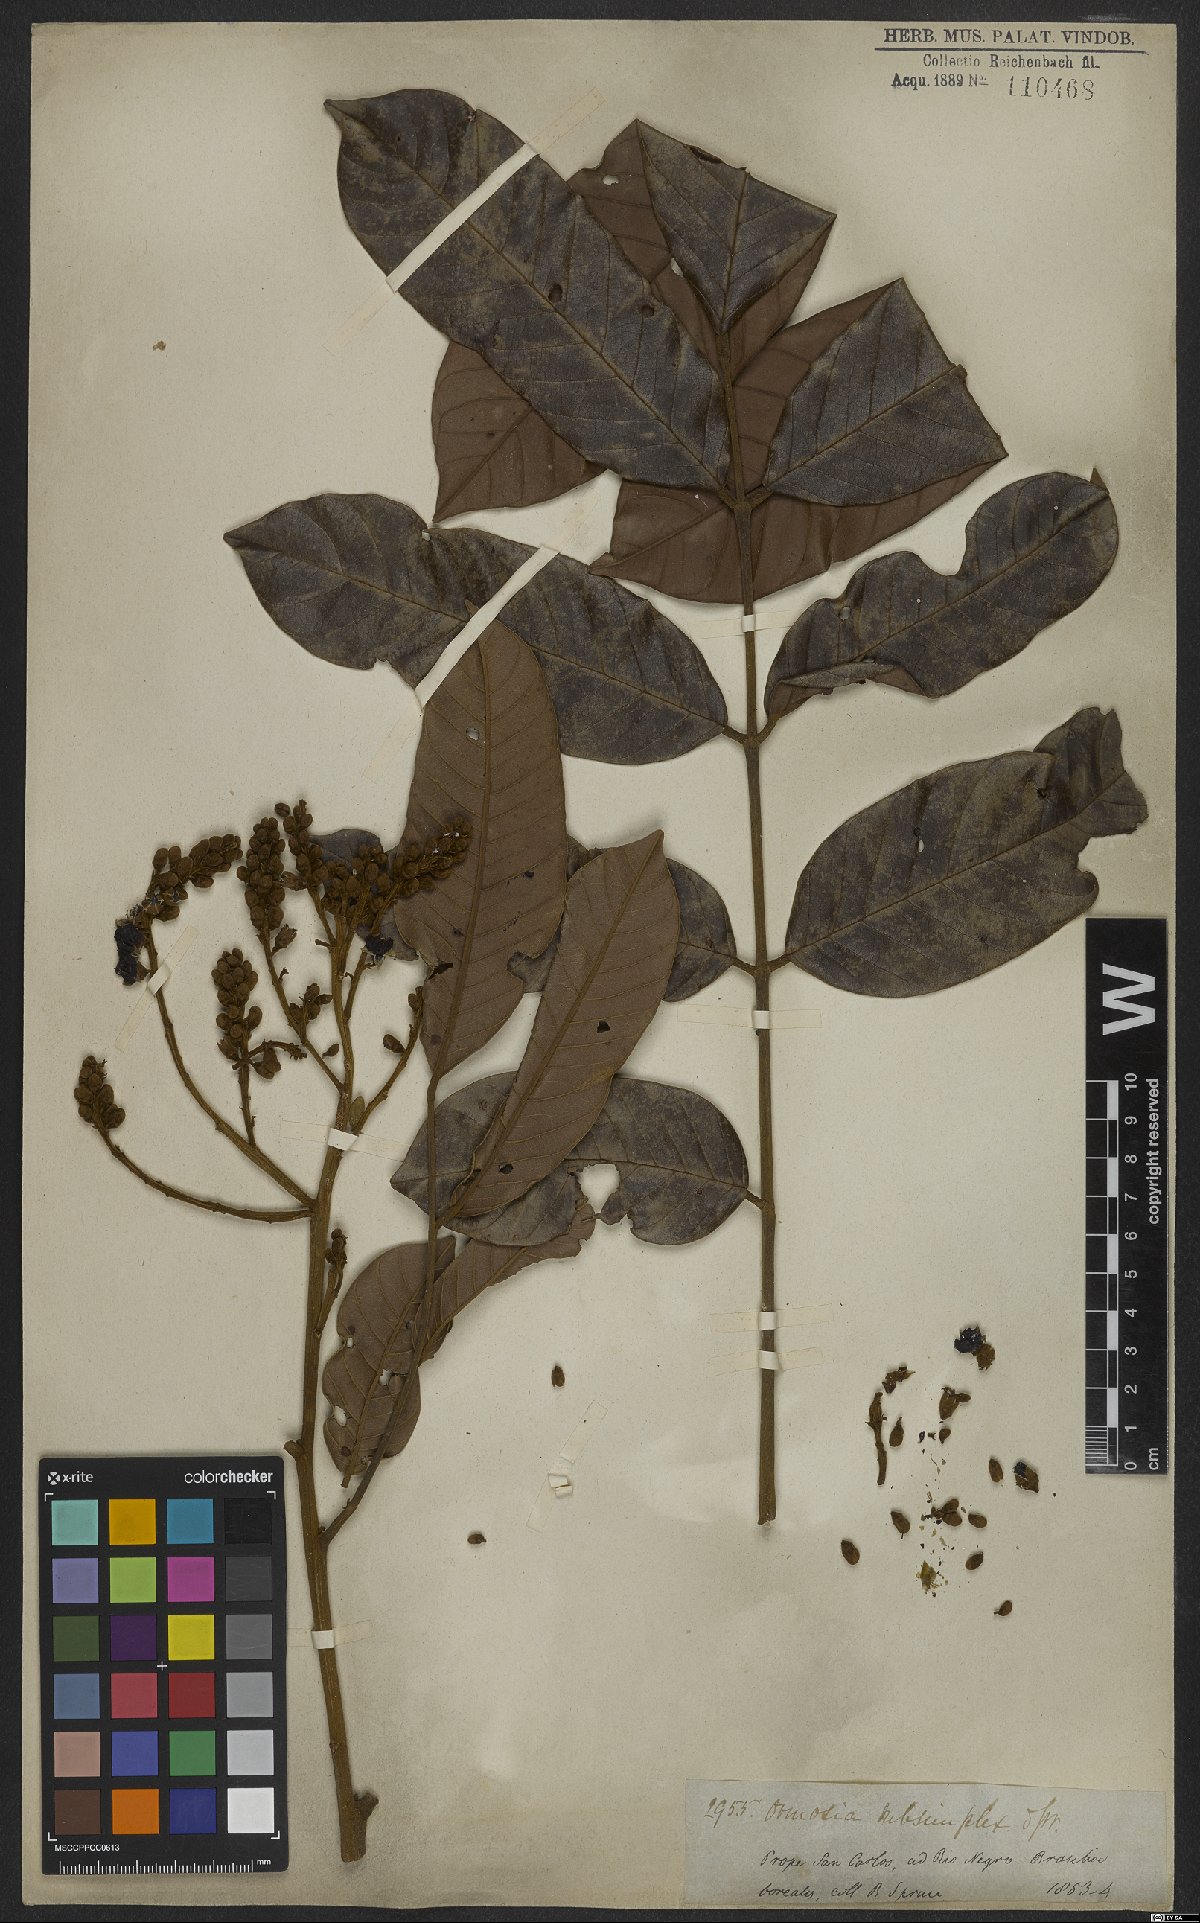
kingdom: Plantae
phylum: Tracheophyta
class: Magnoliopsida
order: Fabales
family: Fabaceae
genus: Ormosia
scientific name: Ormosia subsimplex
